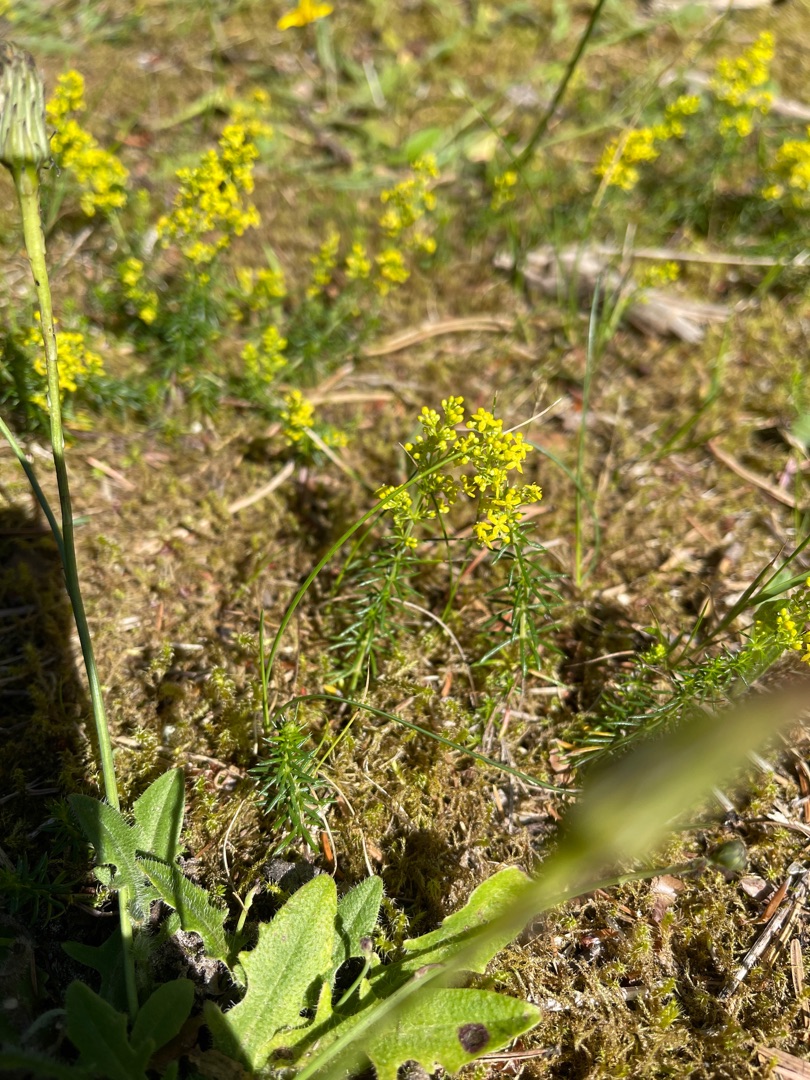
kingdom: Plantae
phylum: Tracheophyta
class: Magnoliopsida
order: Gentianales
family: Rubiaceae
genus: Galium
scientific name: Galium verum
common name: Gul snerre
